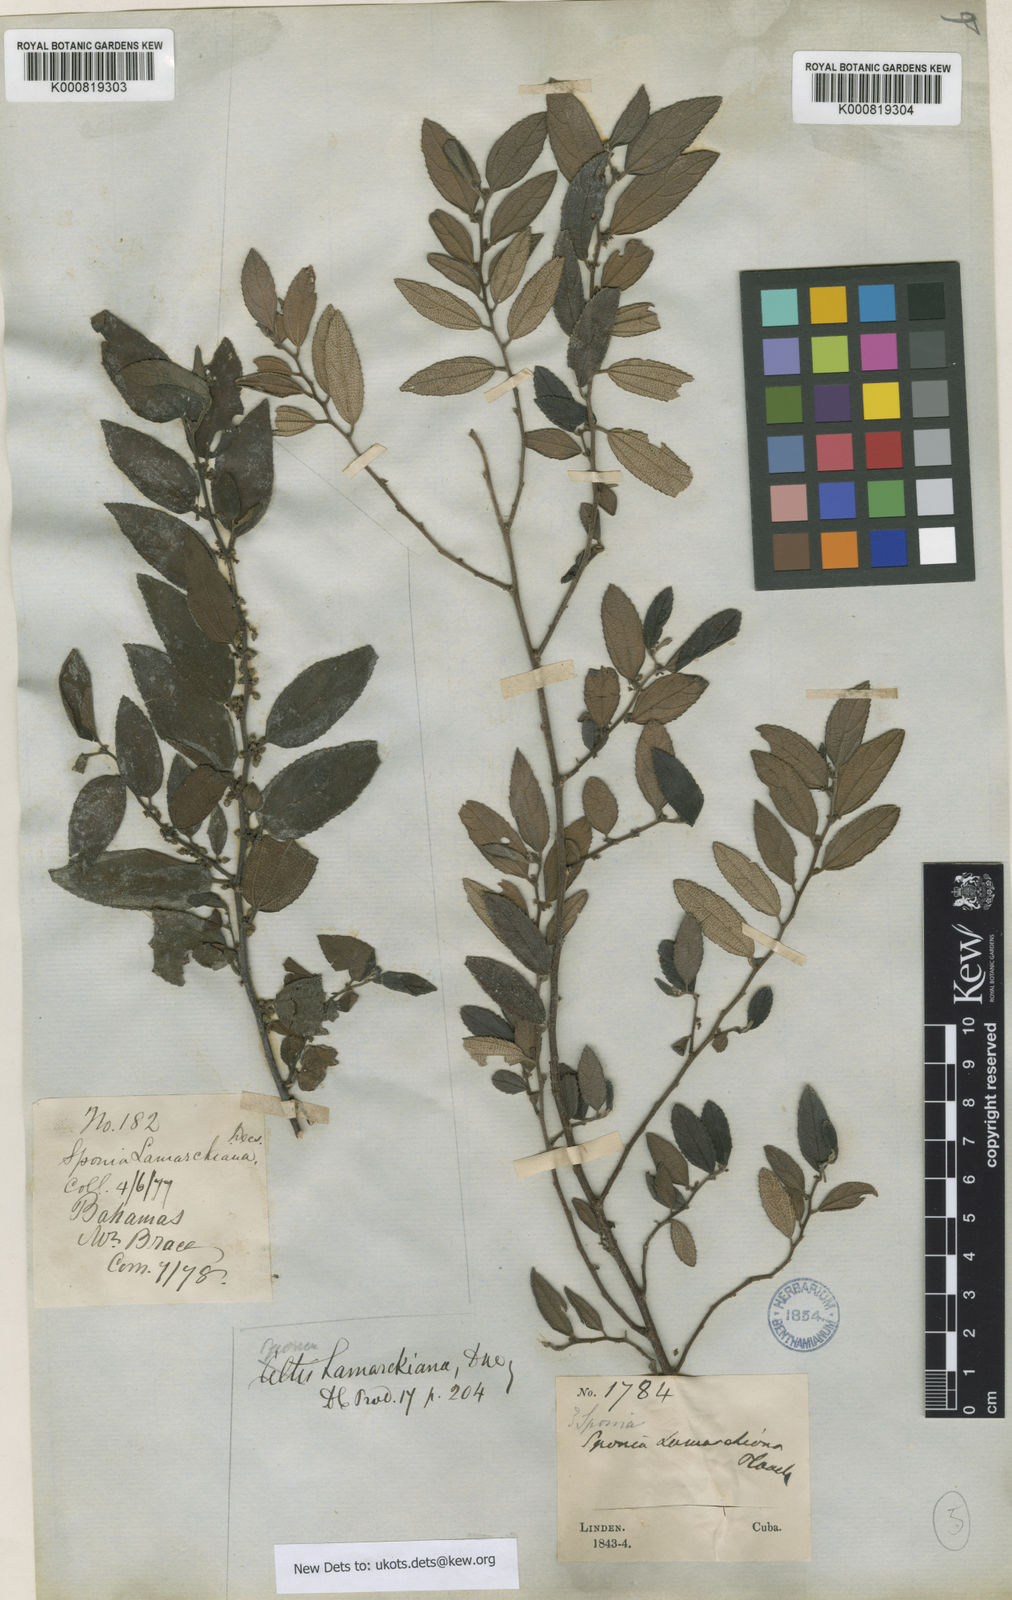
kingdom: Plantae
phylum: Tracheophyta
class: Magnoliopsida
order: Rosales
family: Cannabaceae
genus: Trema
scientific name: Trema lamarckianum
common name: Lamarck's trema
